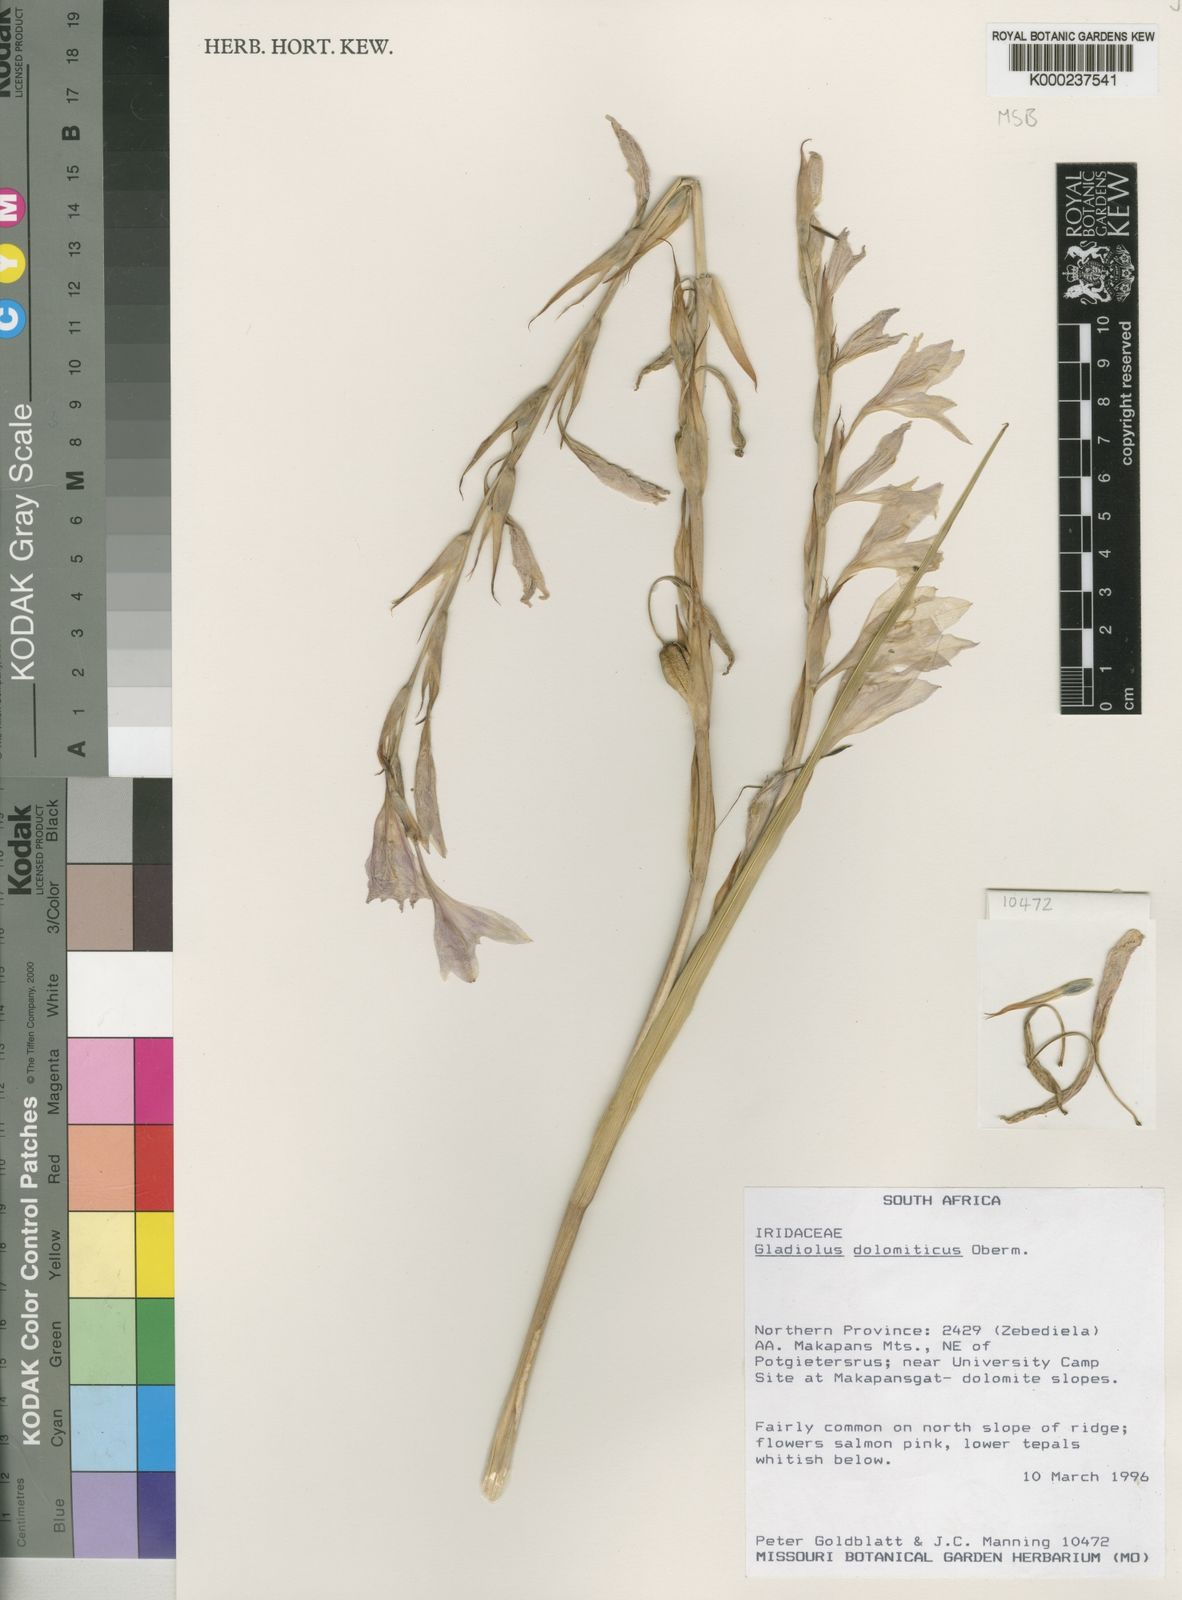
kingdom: Plantae
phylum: Tracheophyta
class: Liliopsida
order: Asparagales
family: Iridaceae
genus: Gladiolus
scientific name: Gladiolus dolomiticus
